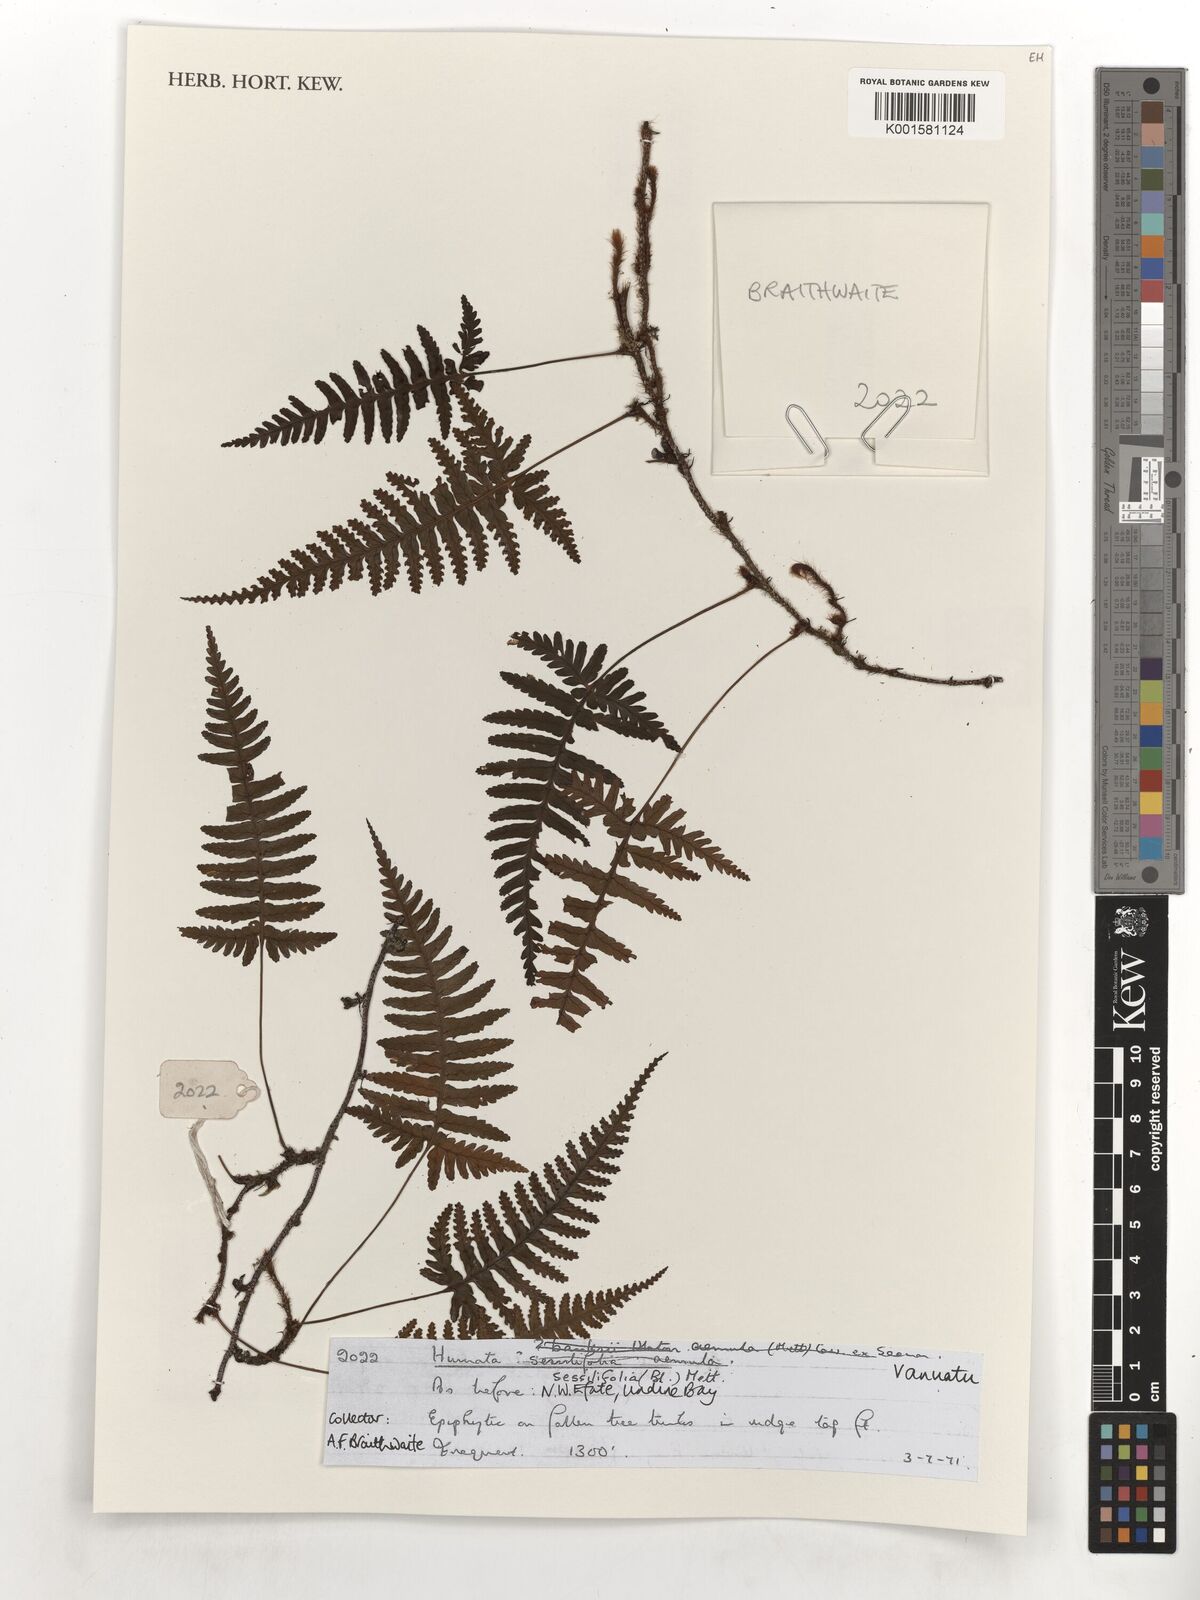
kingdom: Plantae
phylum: Tracheophyta
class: Polypodiopsida
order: Polypodiales
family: Davalliaceae
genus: Davallia
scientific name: Davallia sessilifolia
